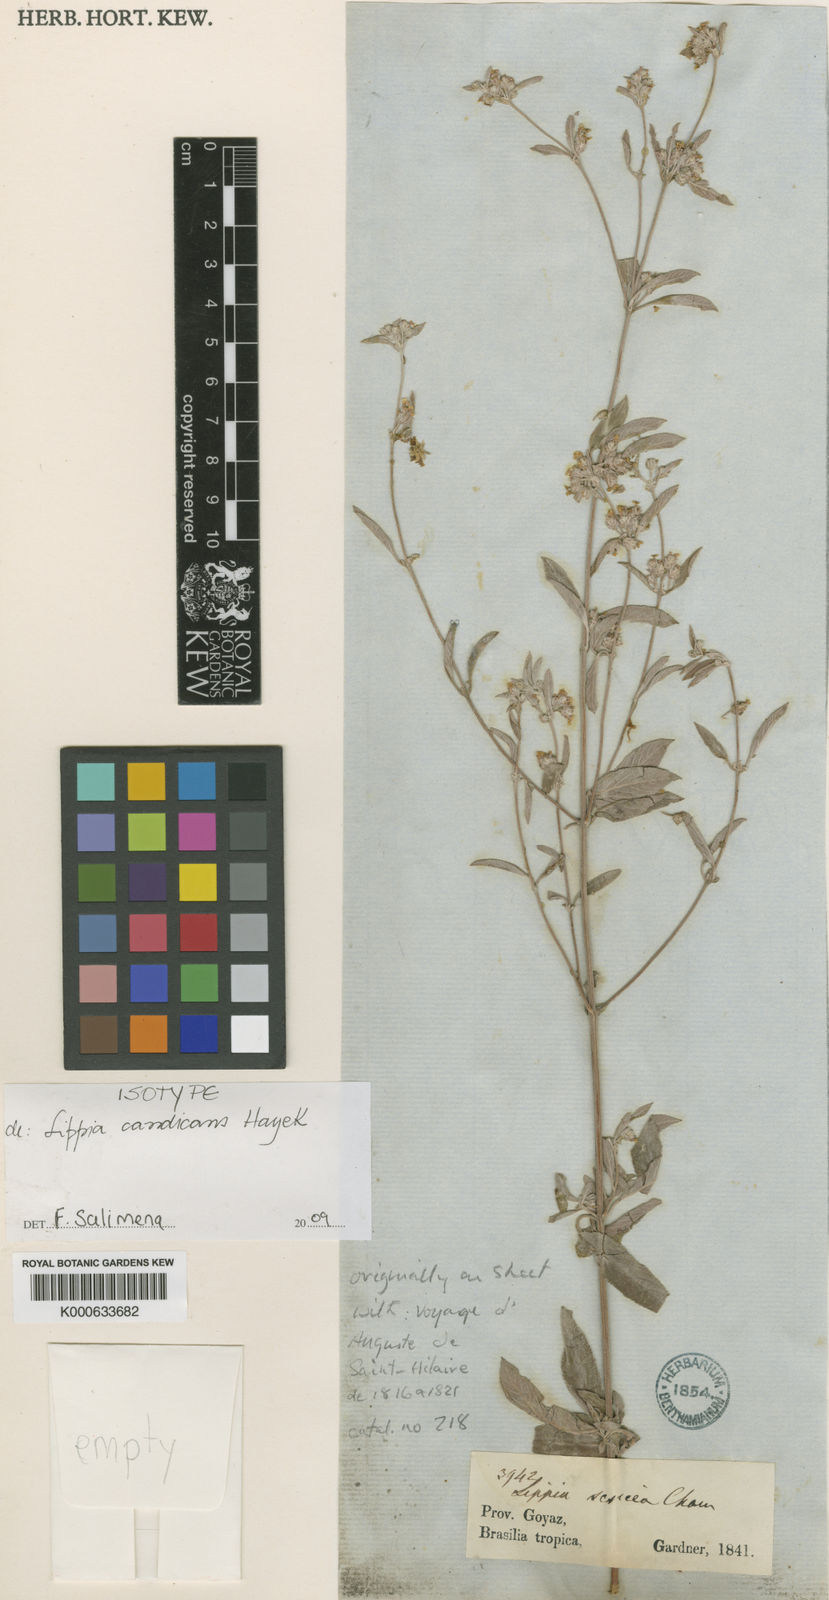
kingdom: Plantae
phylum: Tracheophyta
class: Magnoliopsida
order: Lamiales
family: Verbenaceae
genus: Lippia
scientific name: Lippia origanoides
